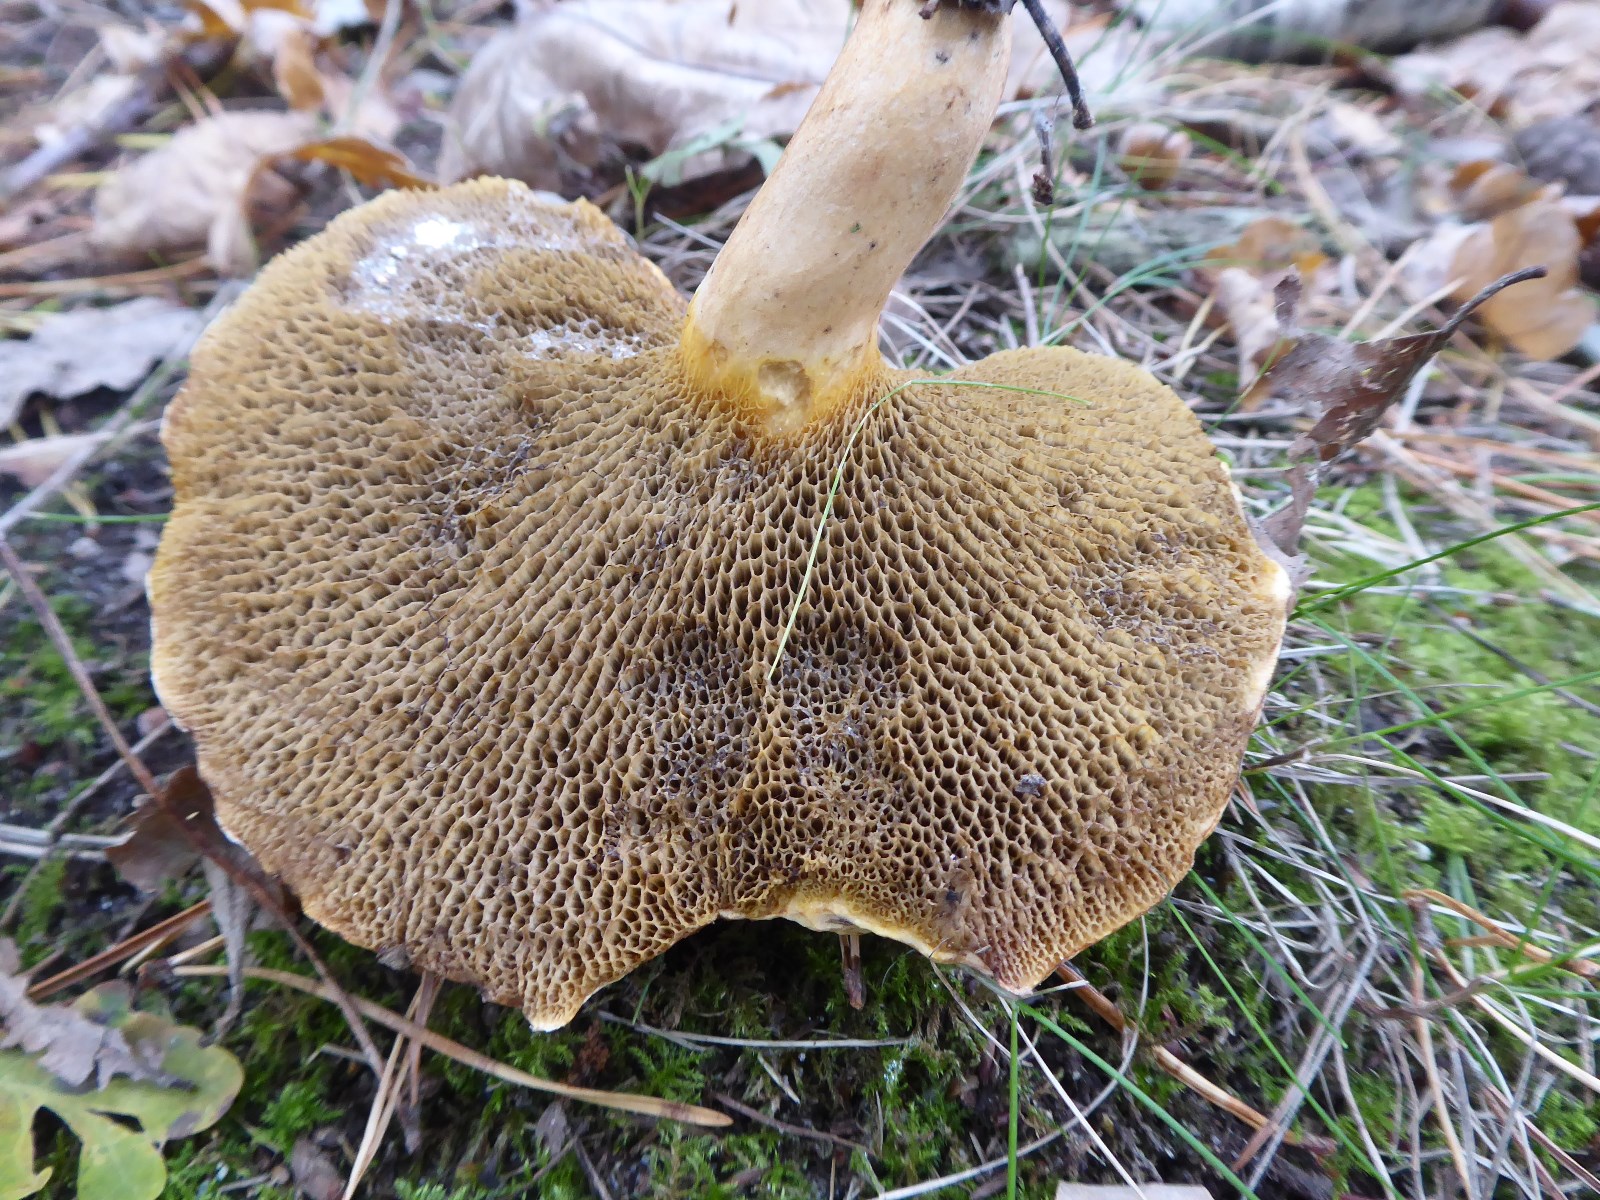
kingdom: Fungi
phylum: Basidiomycota
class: Agaricomycetes
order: Boletales
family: Suillaceae
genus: Suillus
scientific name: Suillus bovinus
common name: grovporet slimrørhat
